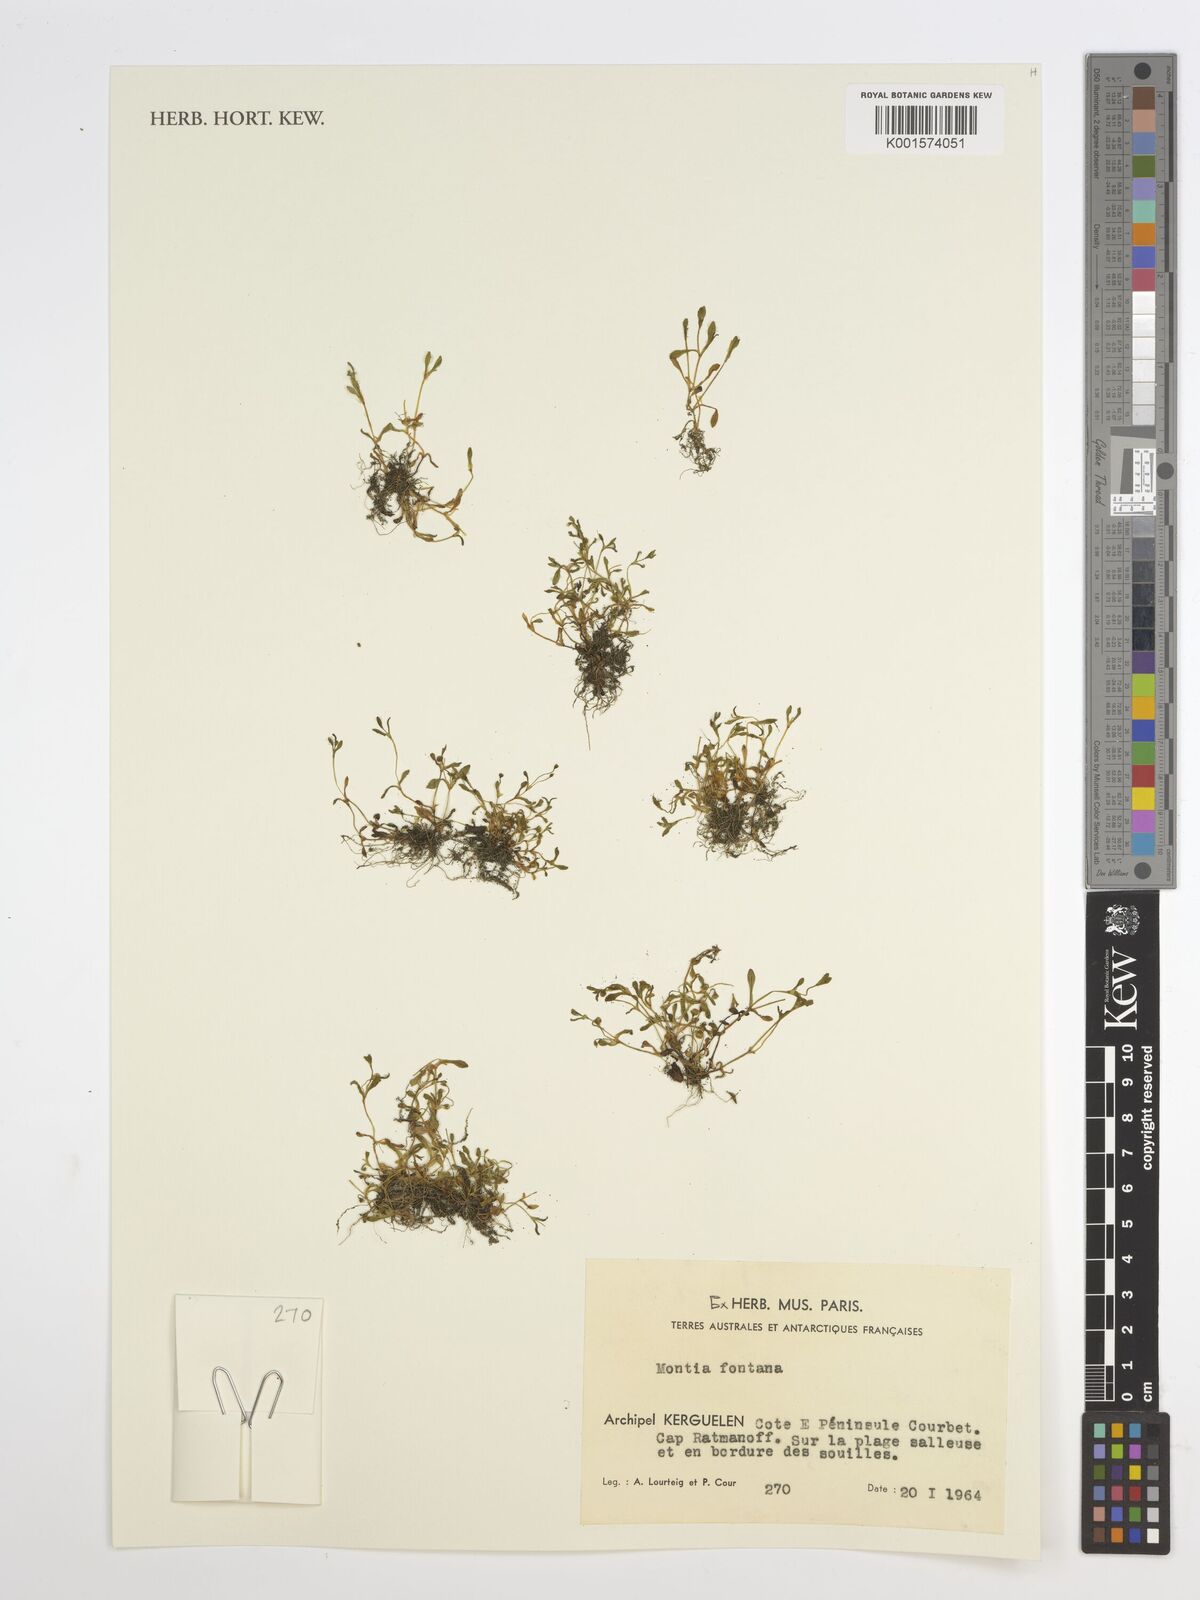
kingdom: Plantae
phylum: Tracheophyta
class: Magnoliopsida
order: Caryophyllales
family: Montiaceae
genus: Montia
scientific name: Montia fontana
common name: Blinks
